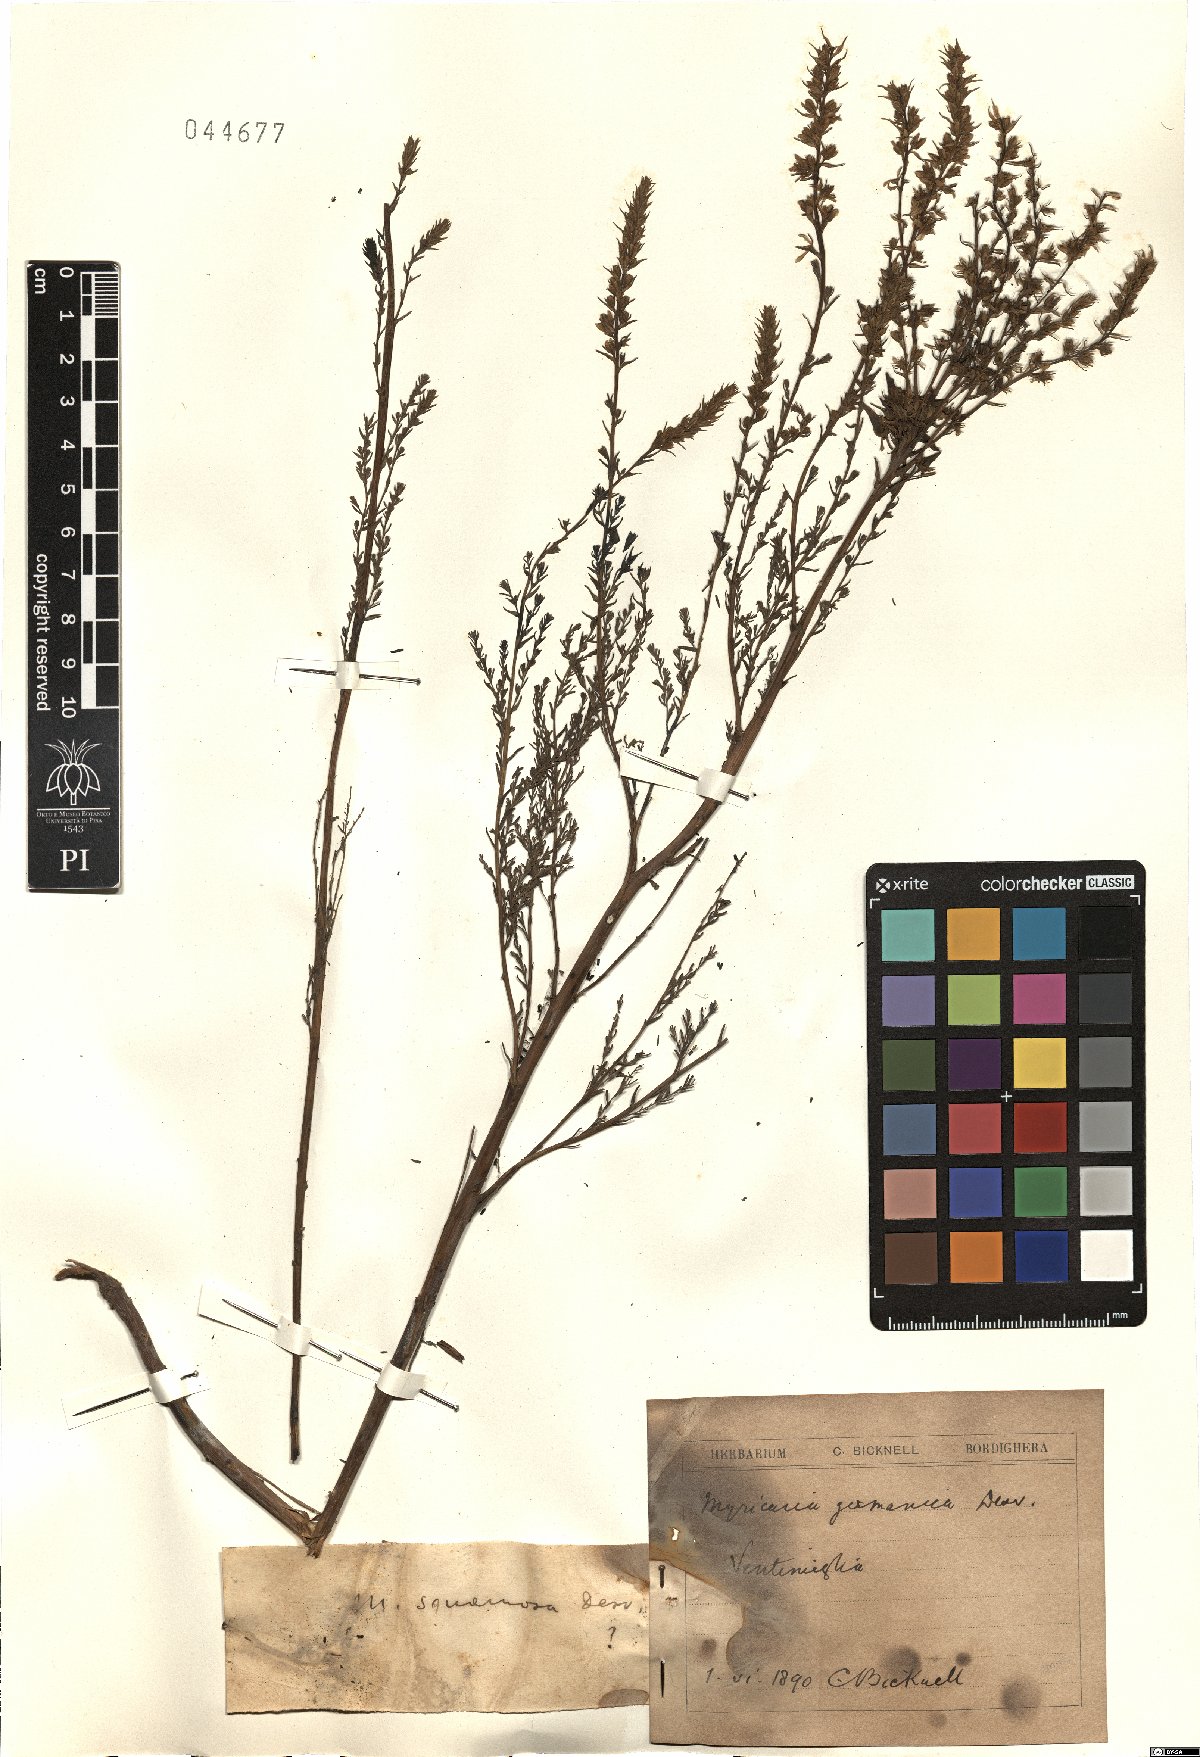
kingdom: Plantae
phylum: Tracheophyta
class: Magnoliopsida
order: Caryophyllales
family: Tamaricaceae
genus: Myricaria
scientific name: Myricaria squamosa
